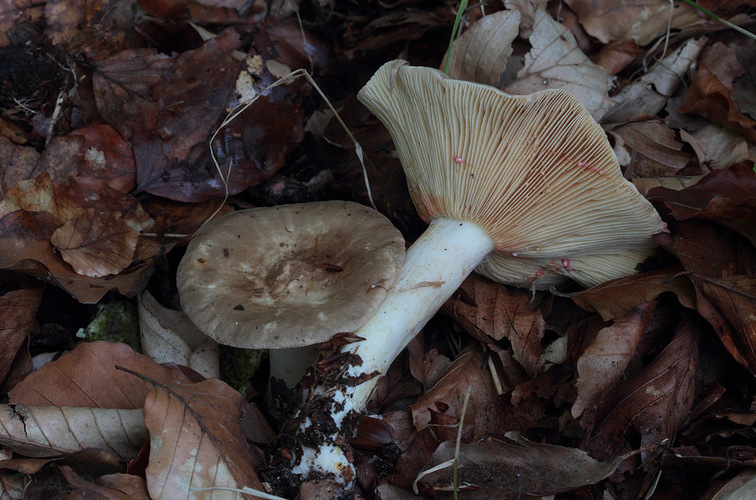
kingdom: Fungi
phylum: Basidiomycota
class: Agaricomycetes
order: Russulales
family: Russulaceae
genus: Lactarius
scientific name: Lactarius acris
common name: rosamælket mælkehat
